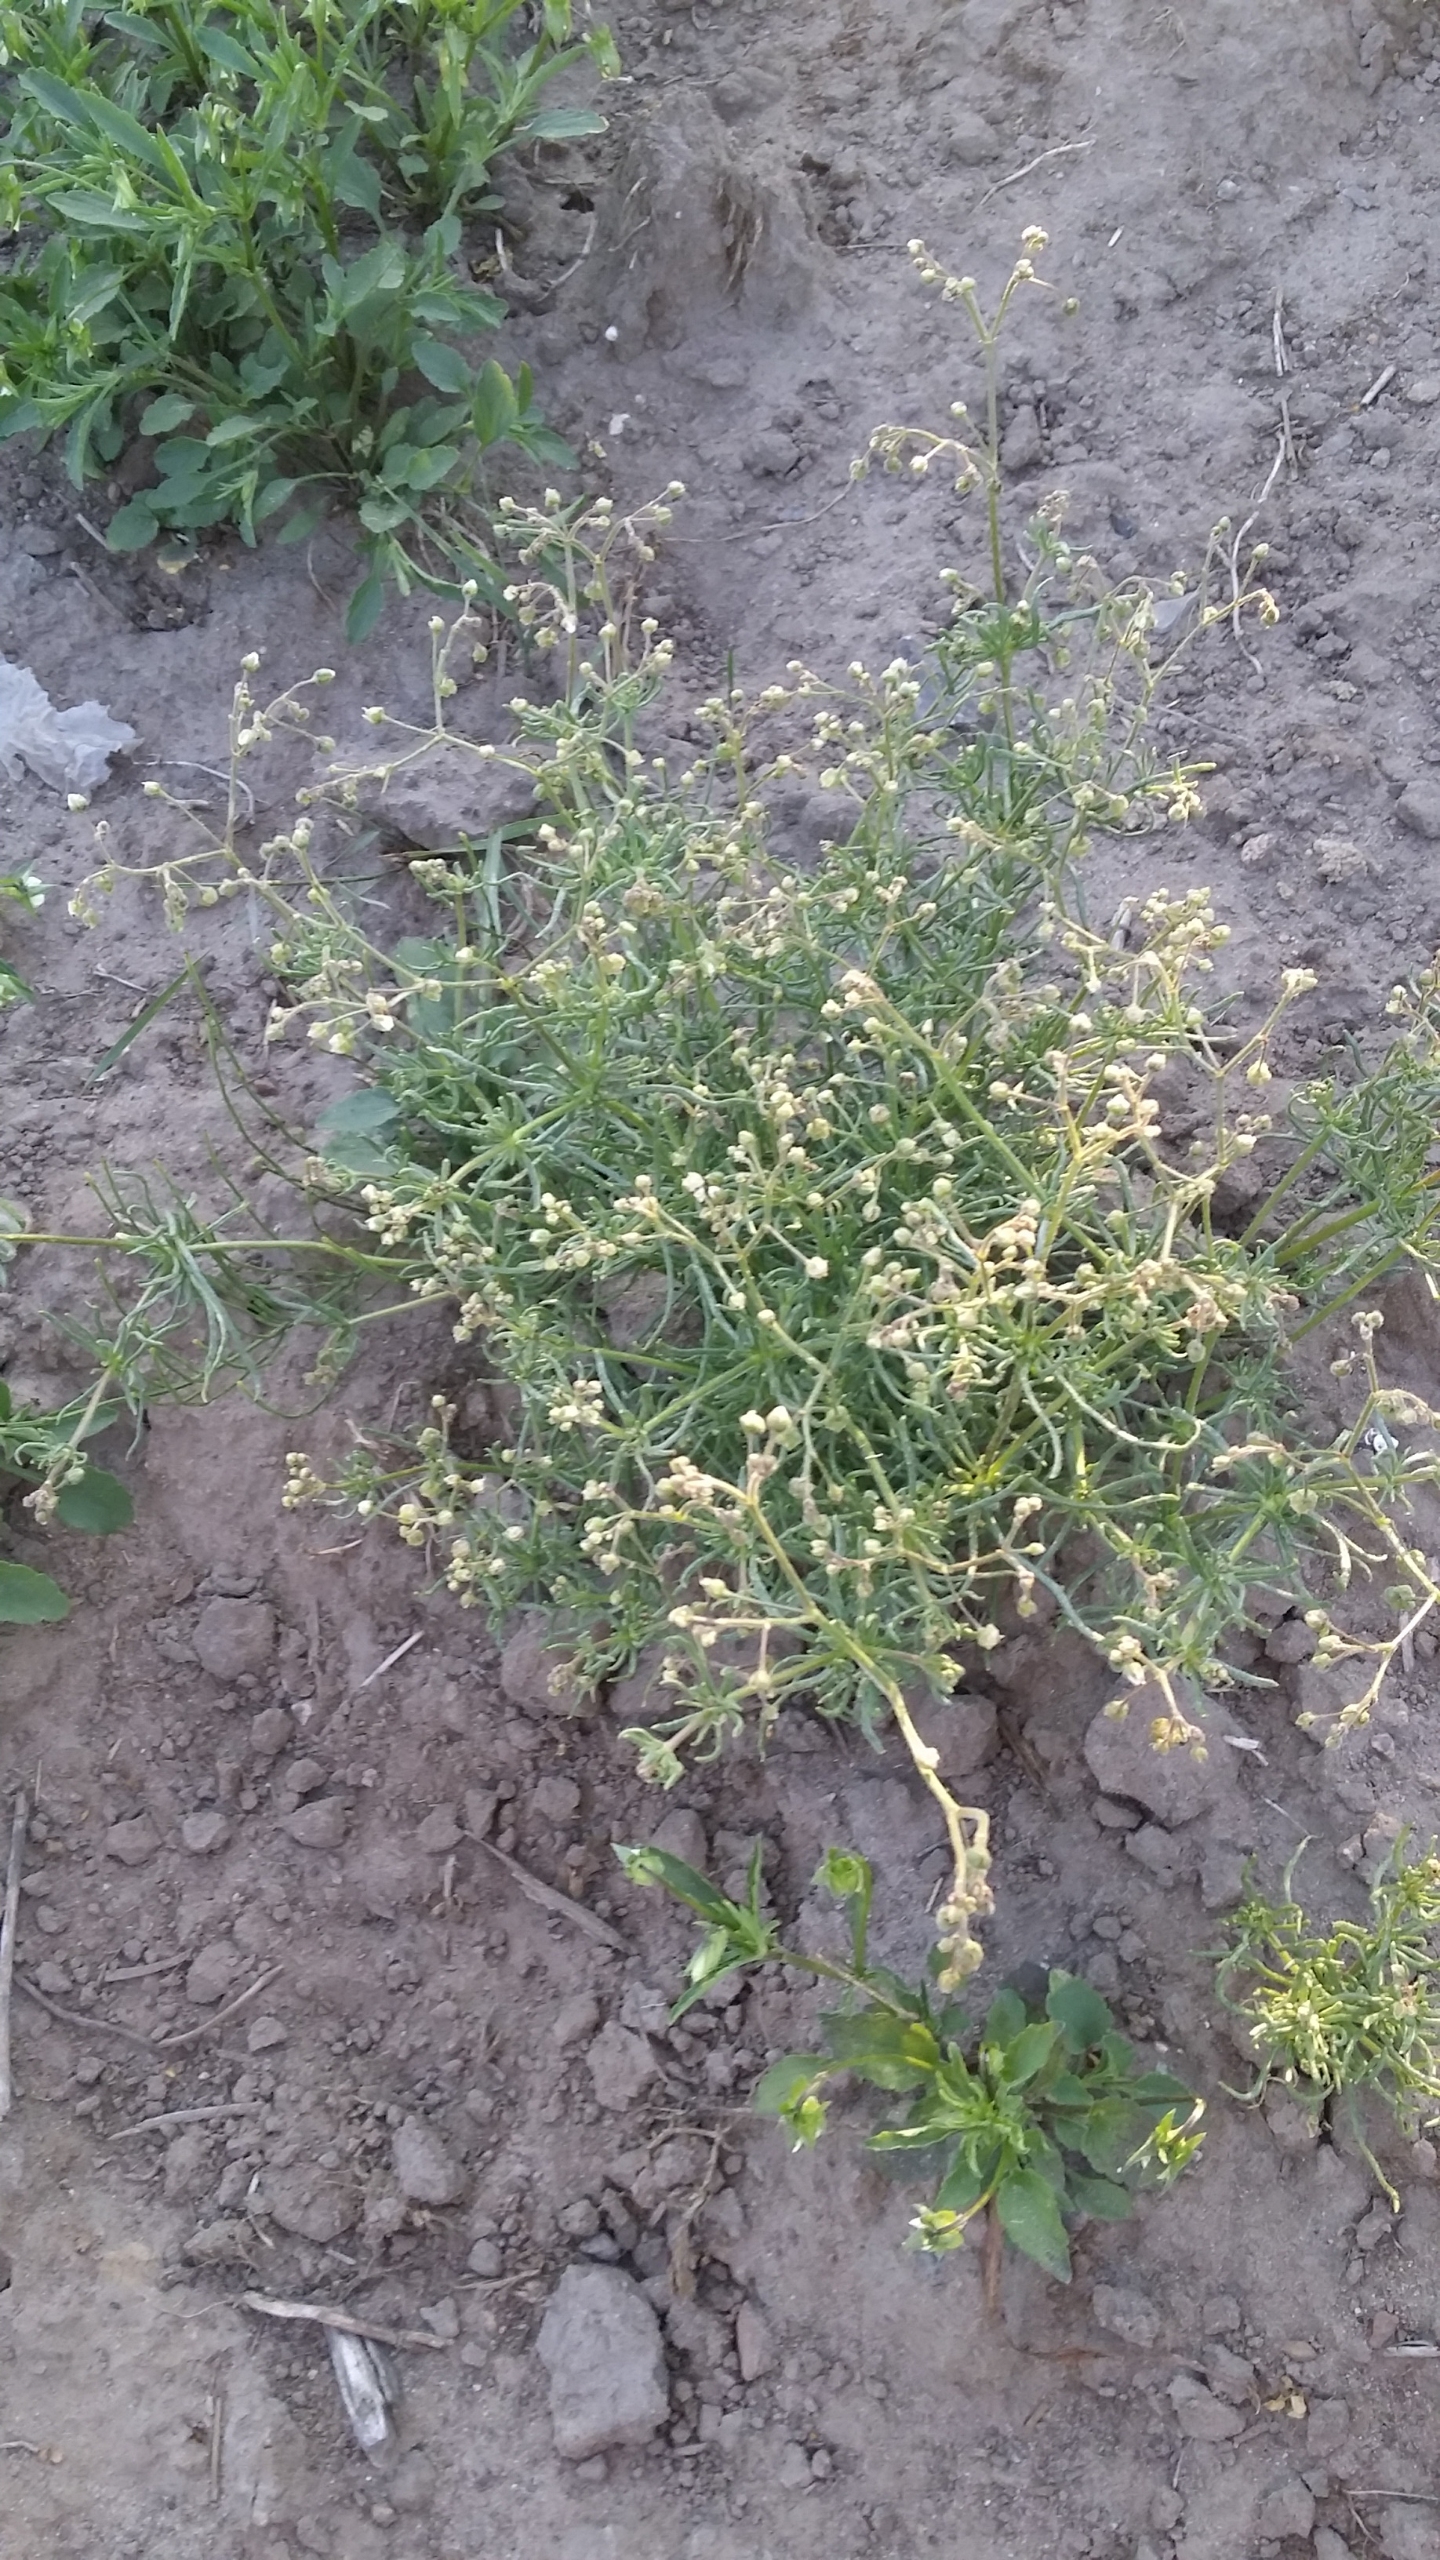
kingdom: Plantae
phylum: Tracheophyta
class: Magnoliopsida
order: Caryophyllales
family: Caryophyllaceae
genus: Spergula
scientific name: Spergula arvensis
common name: Foder-spergel
